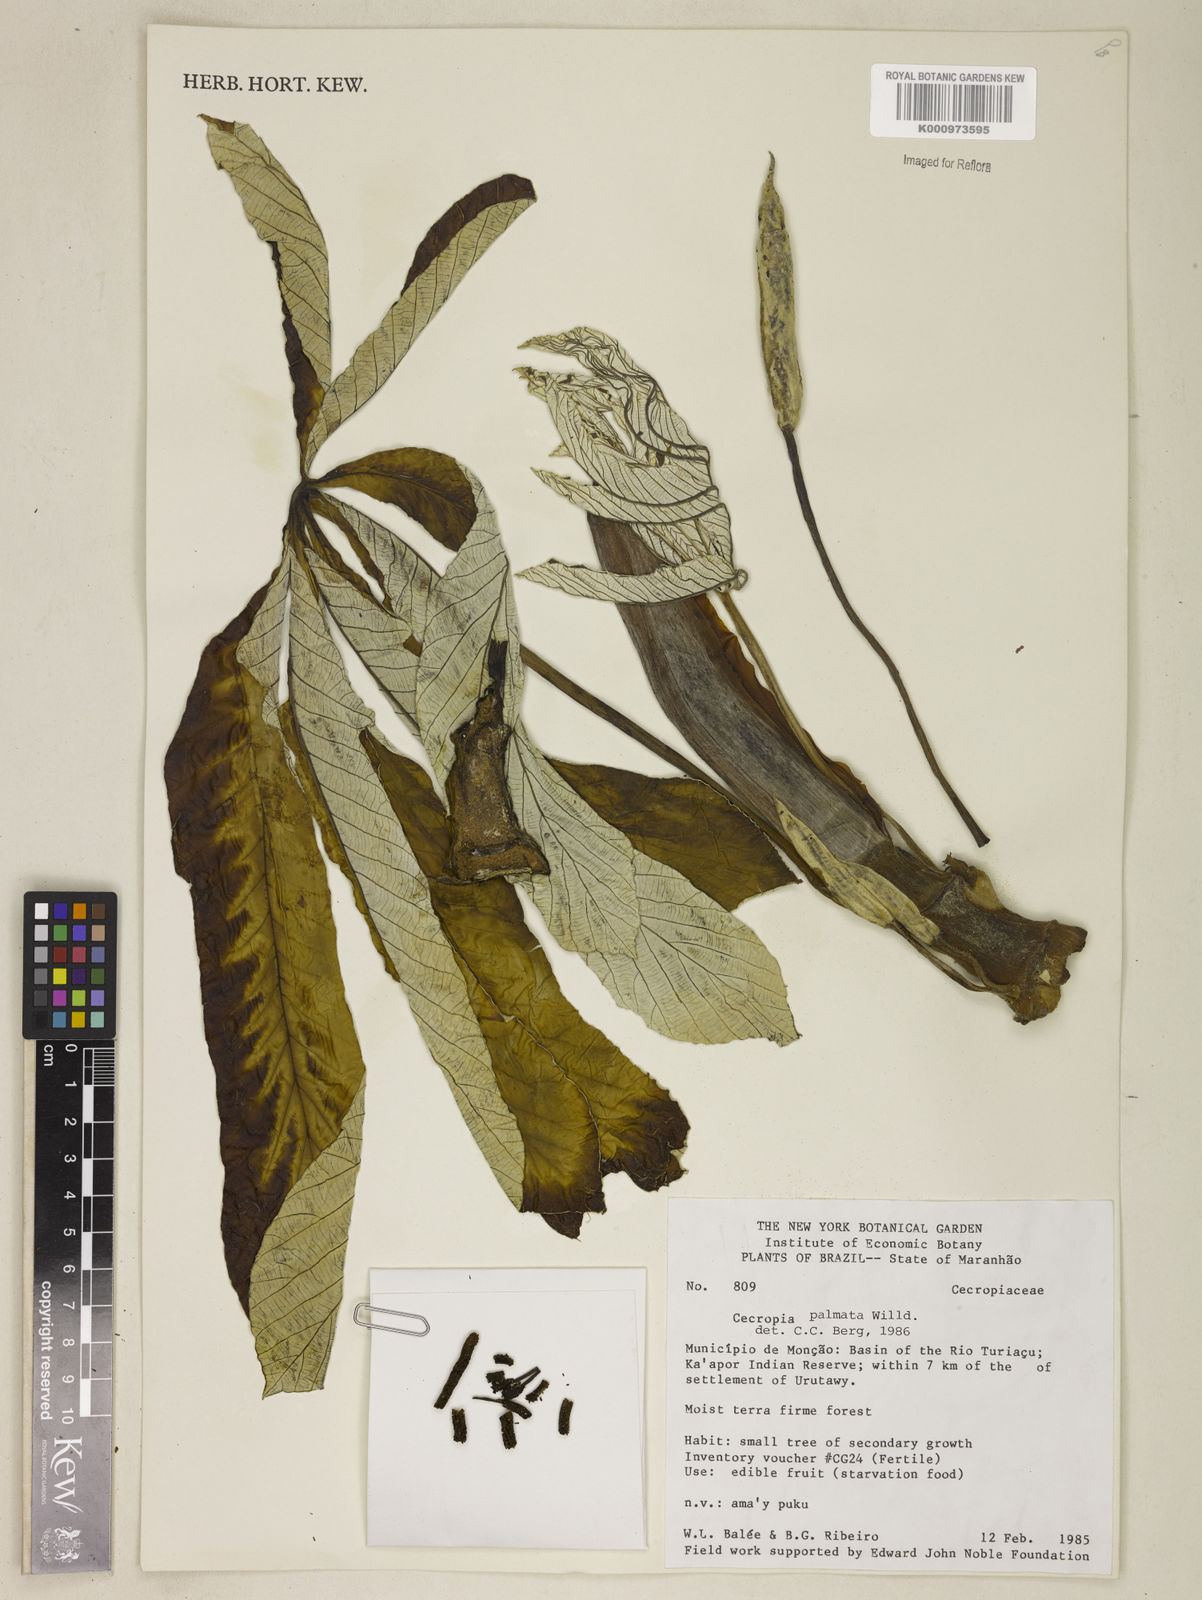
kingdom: Plantae
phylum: Tracheophyta
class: Magnoliopsida
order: Rosales
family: Urticaceae
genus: Cecropia
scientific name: Cecropia palmata
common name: Trumpet tree
